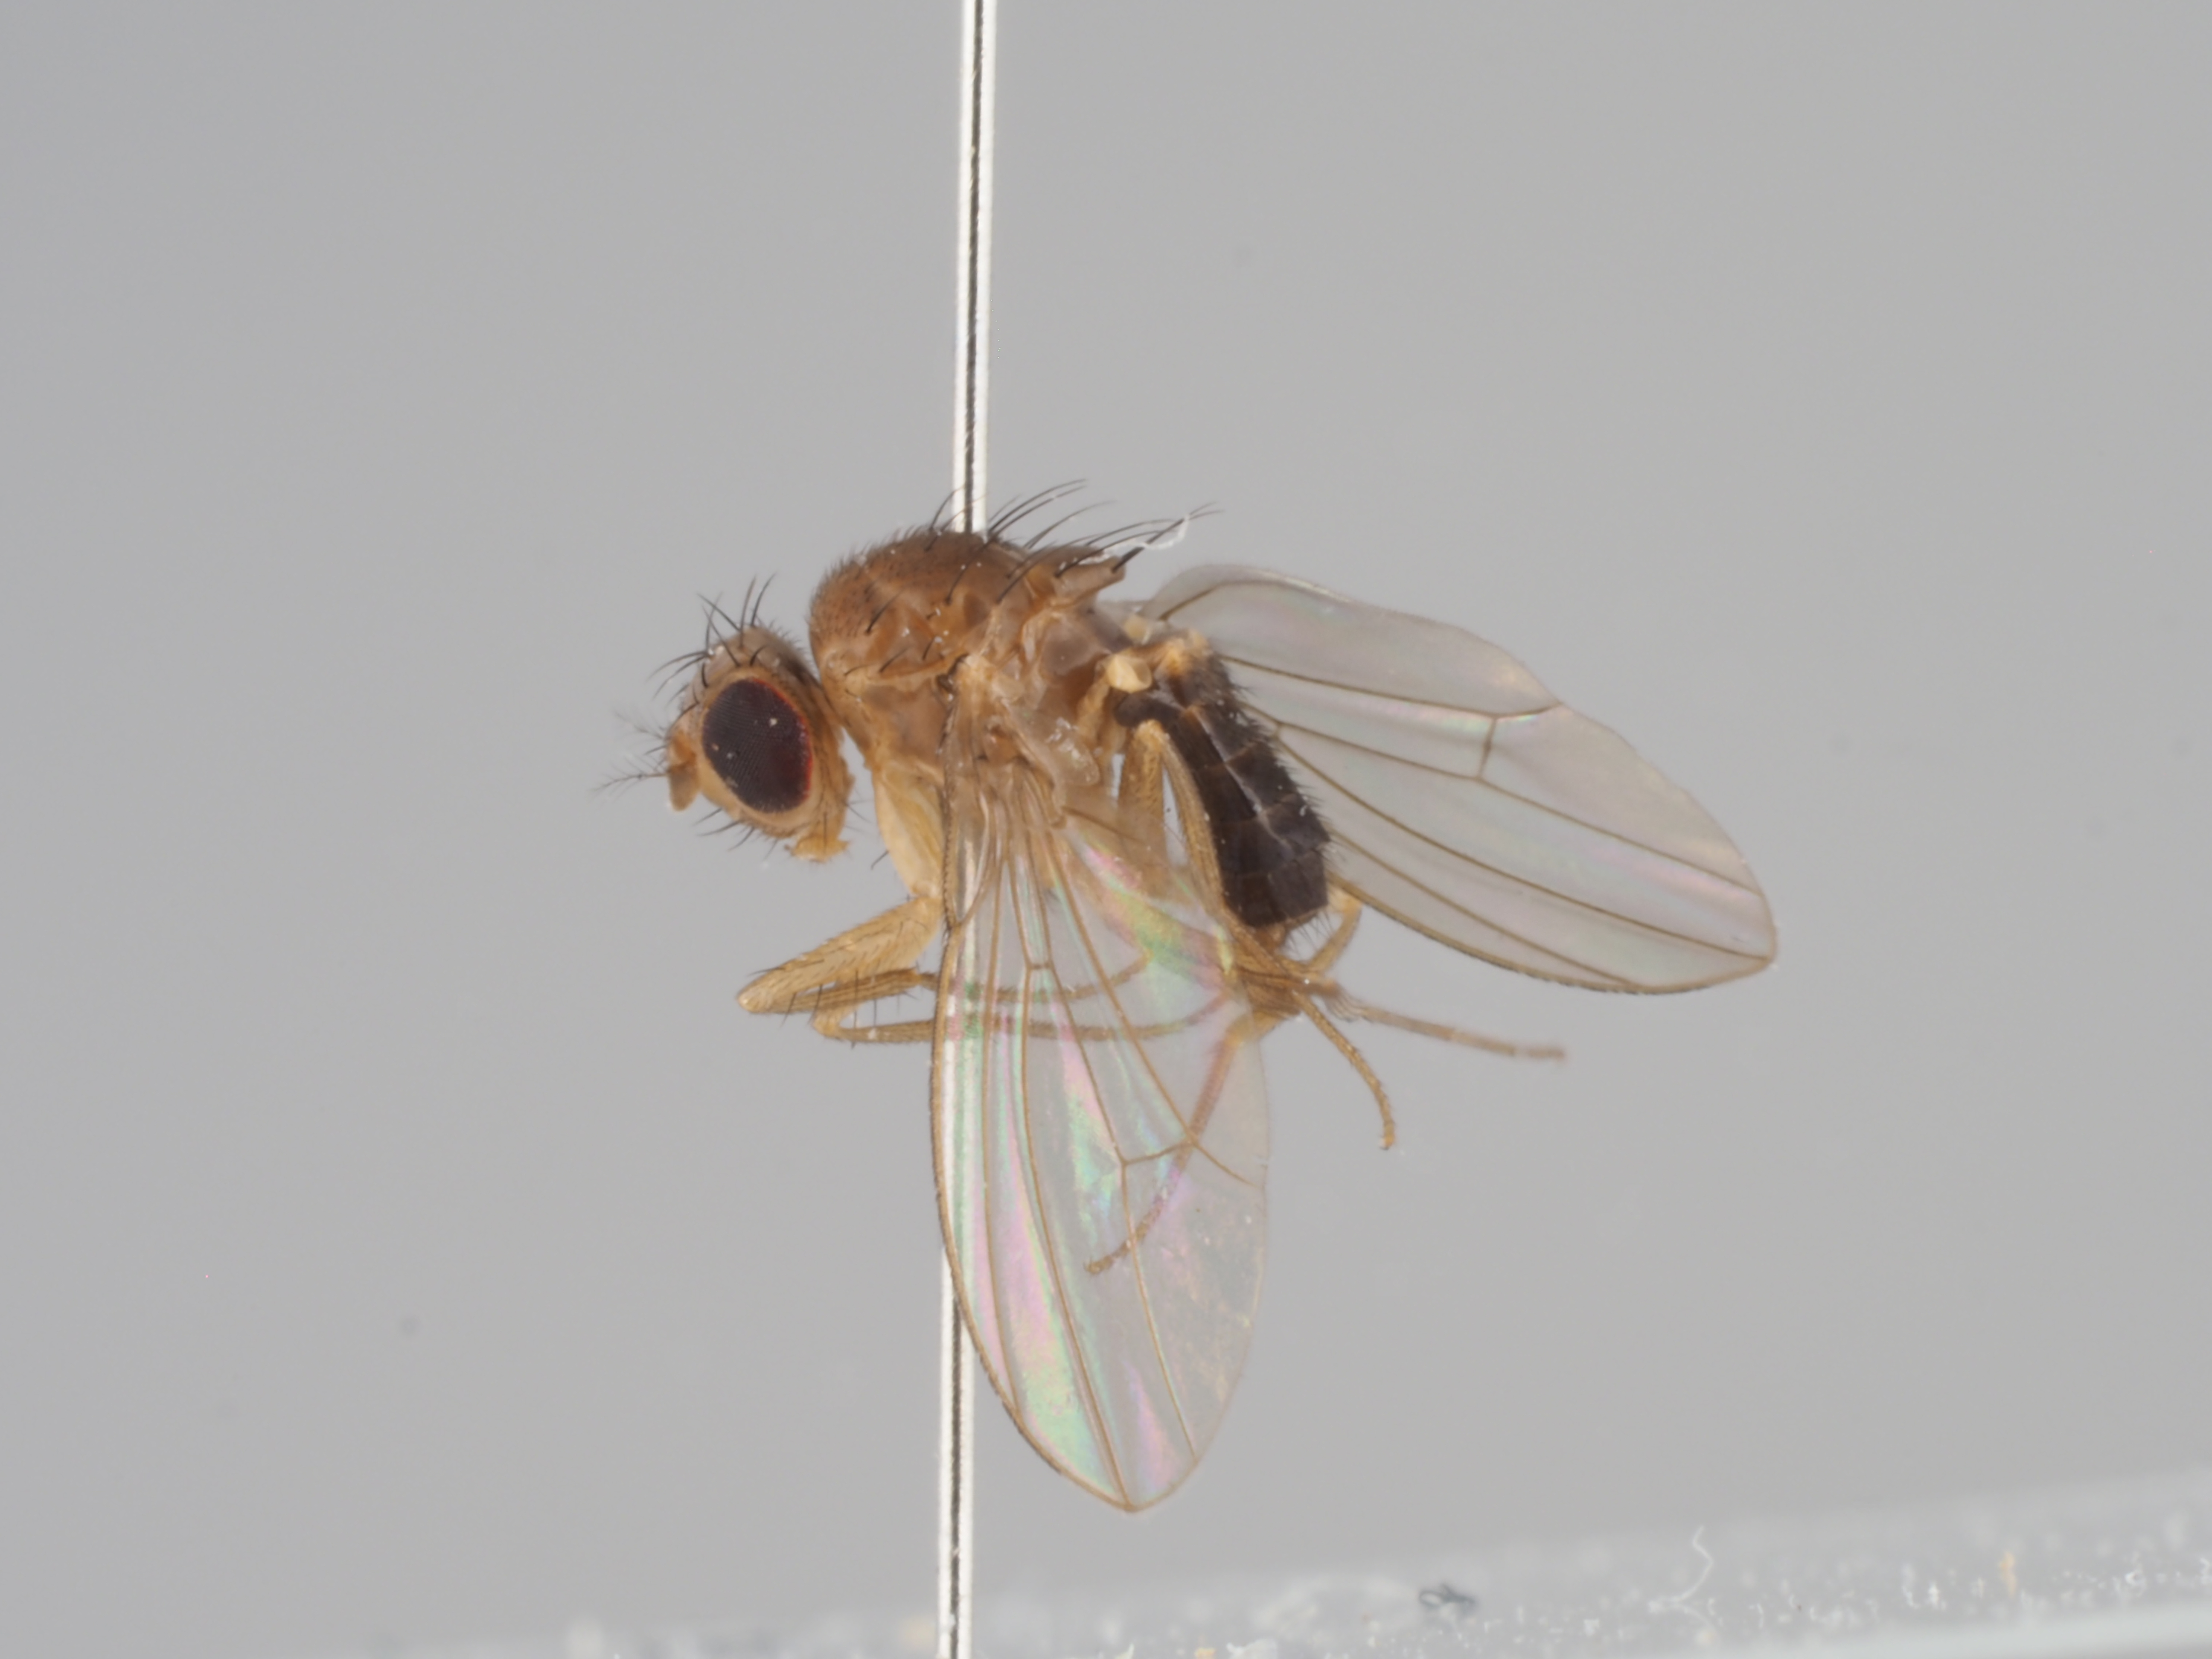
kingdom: Animalia
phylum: Arthropoda
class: Insecta
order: Diptera
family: Drosophilidae
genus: Drosophila
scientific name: Drosophila funebris
